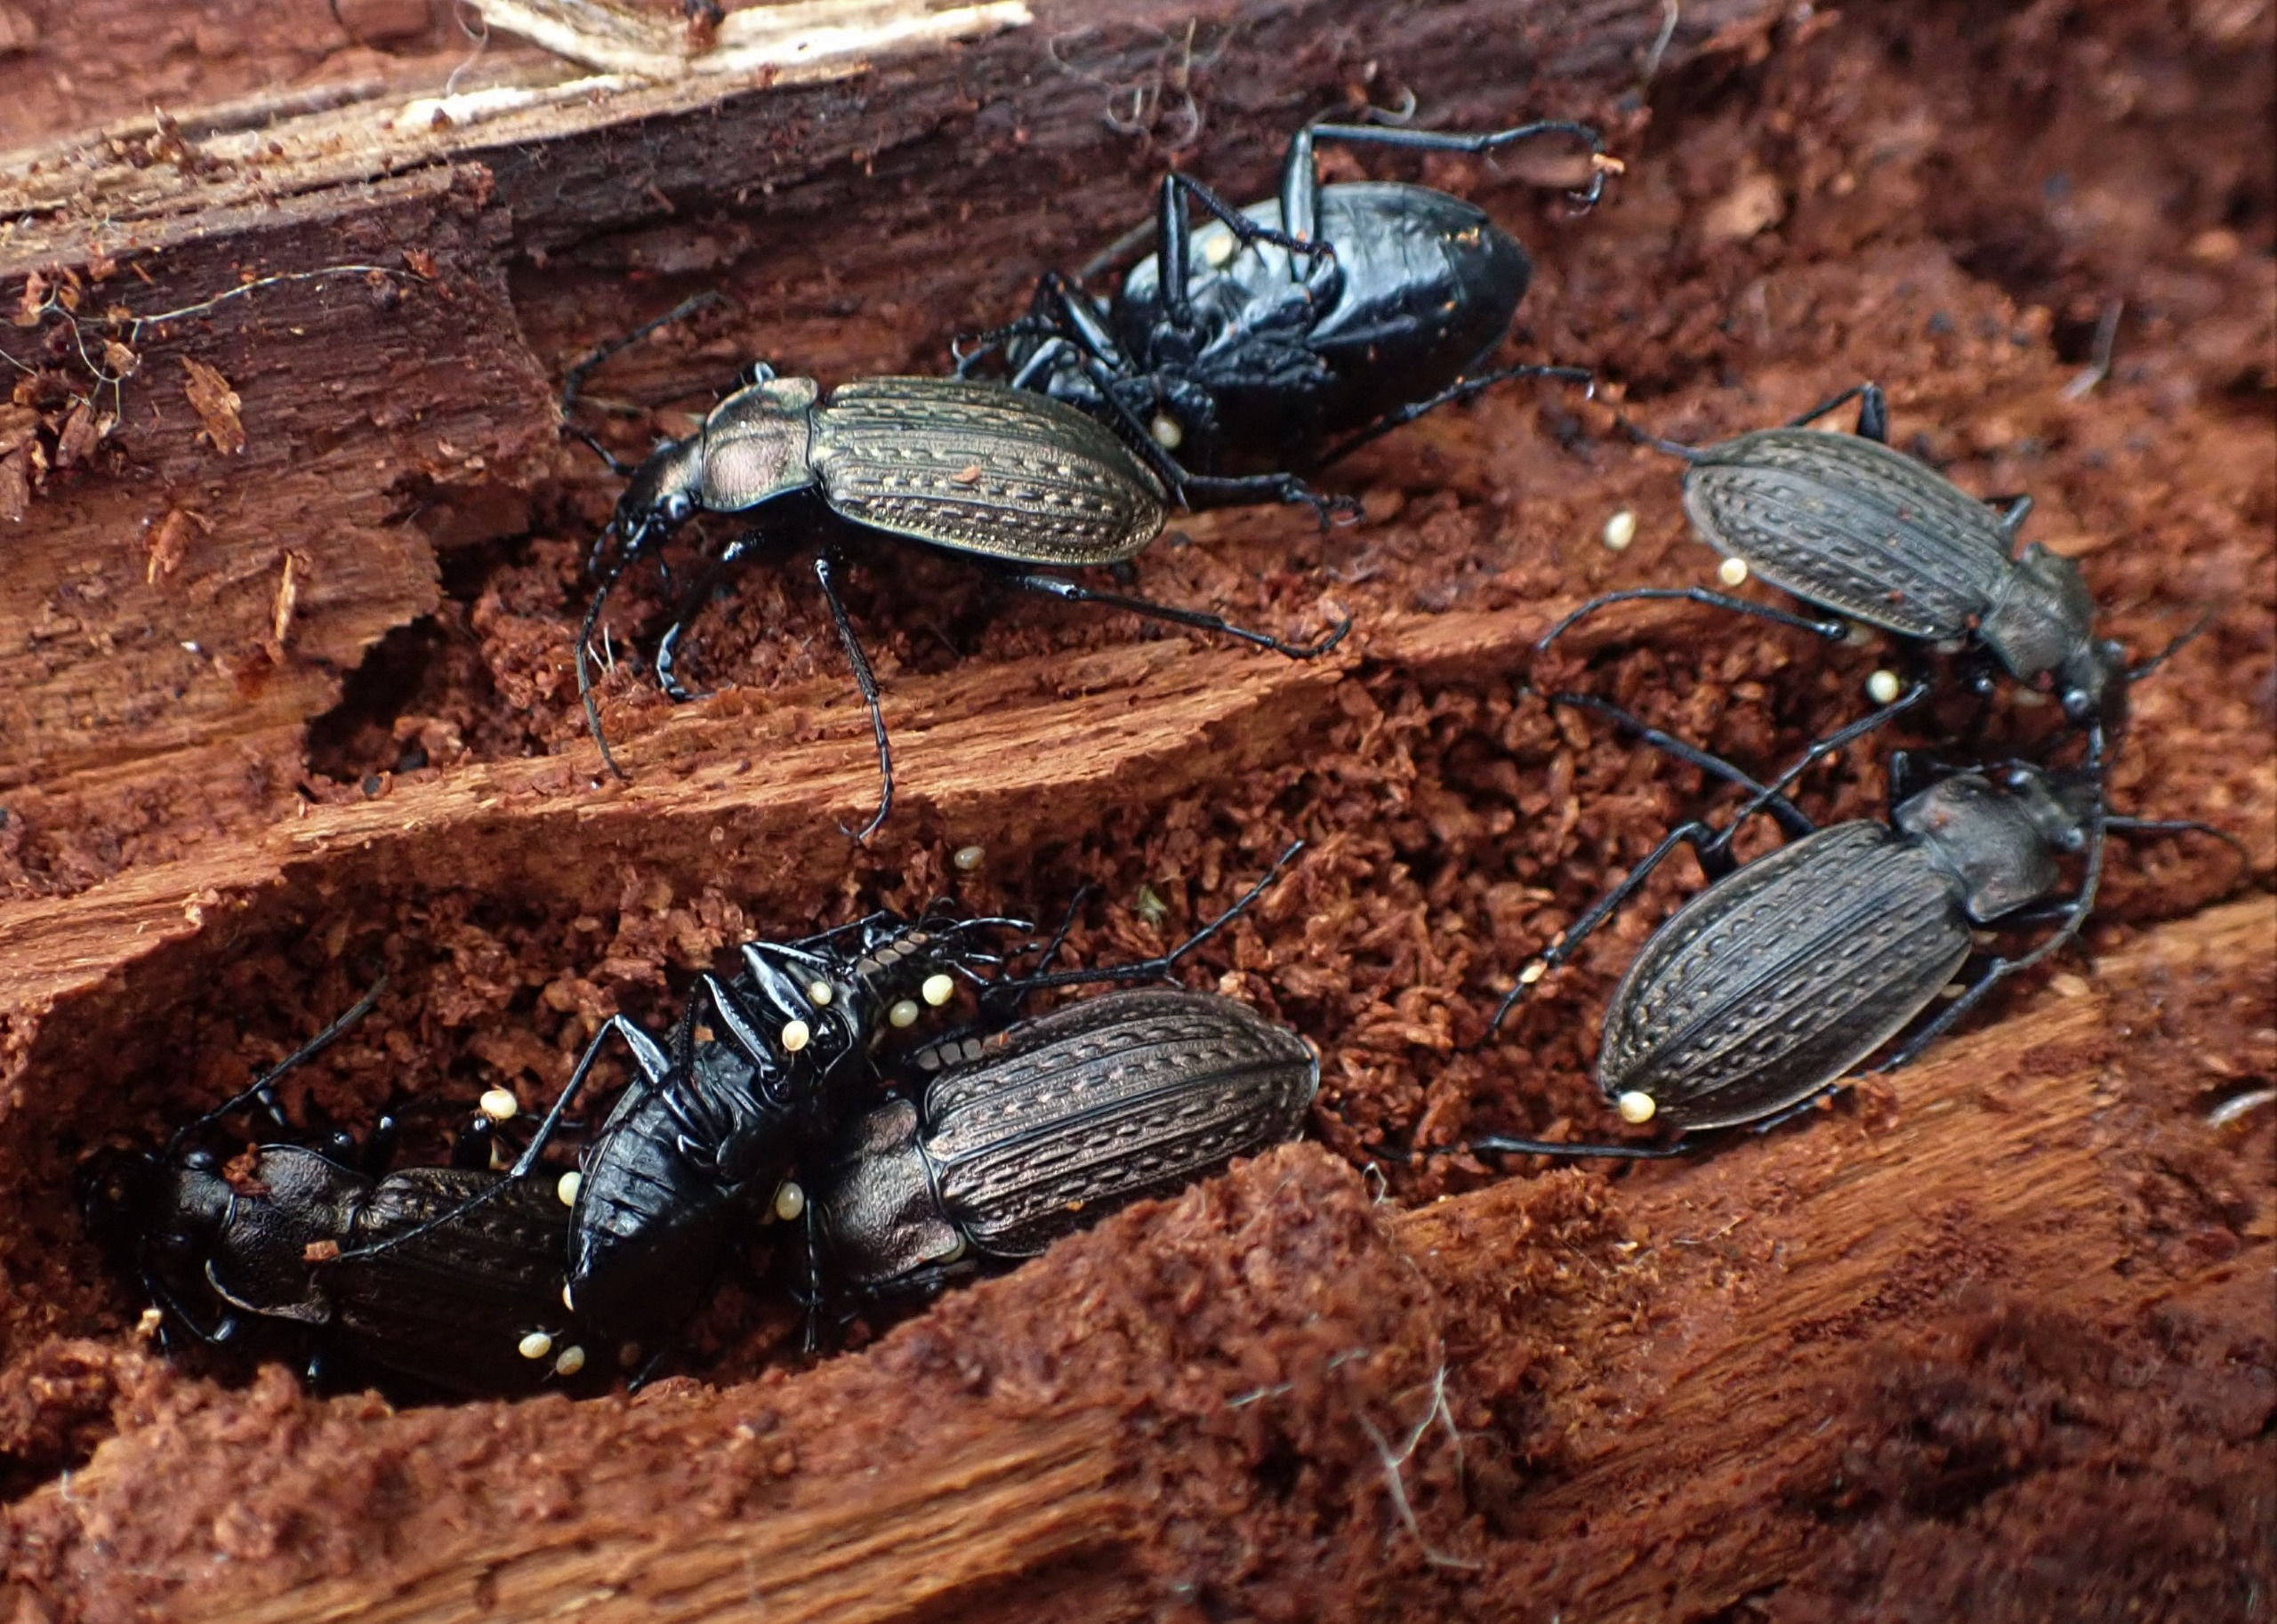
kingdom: Animalia
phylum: Arthropoda
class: Insecta
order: Coleoptera
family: Carabidae
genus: Carabus
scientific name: Carabus granulatus
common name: Kornet løber
